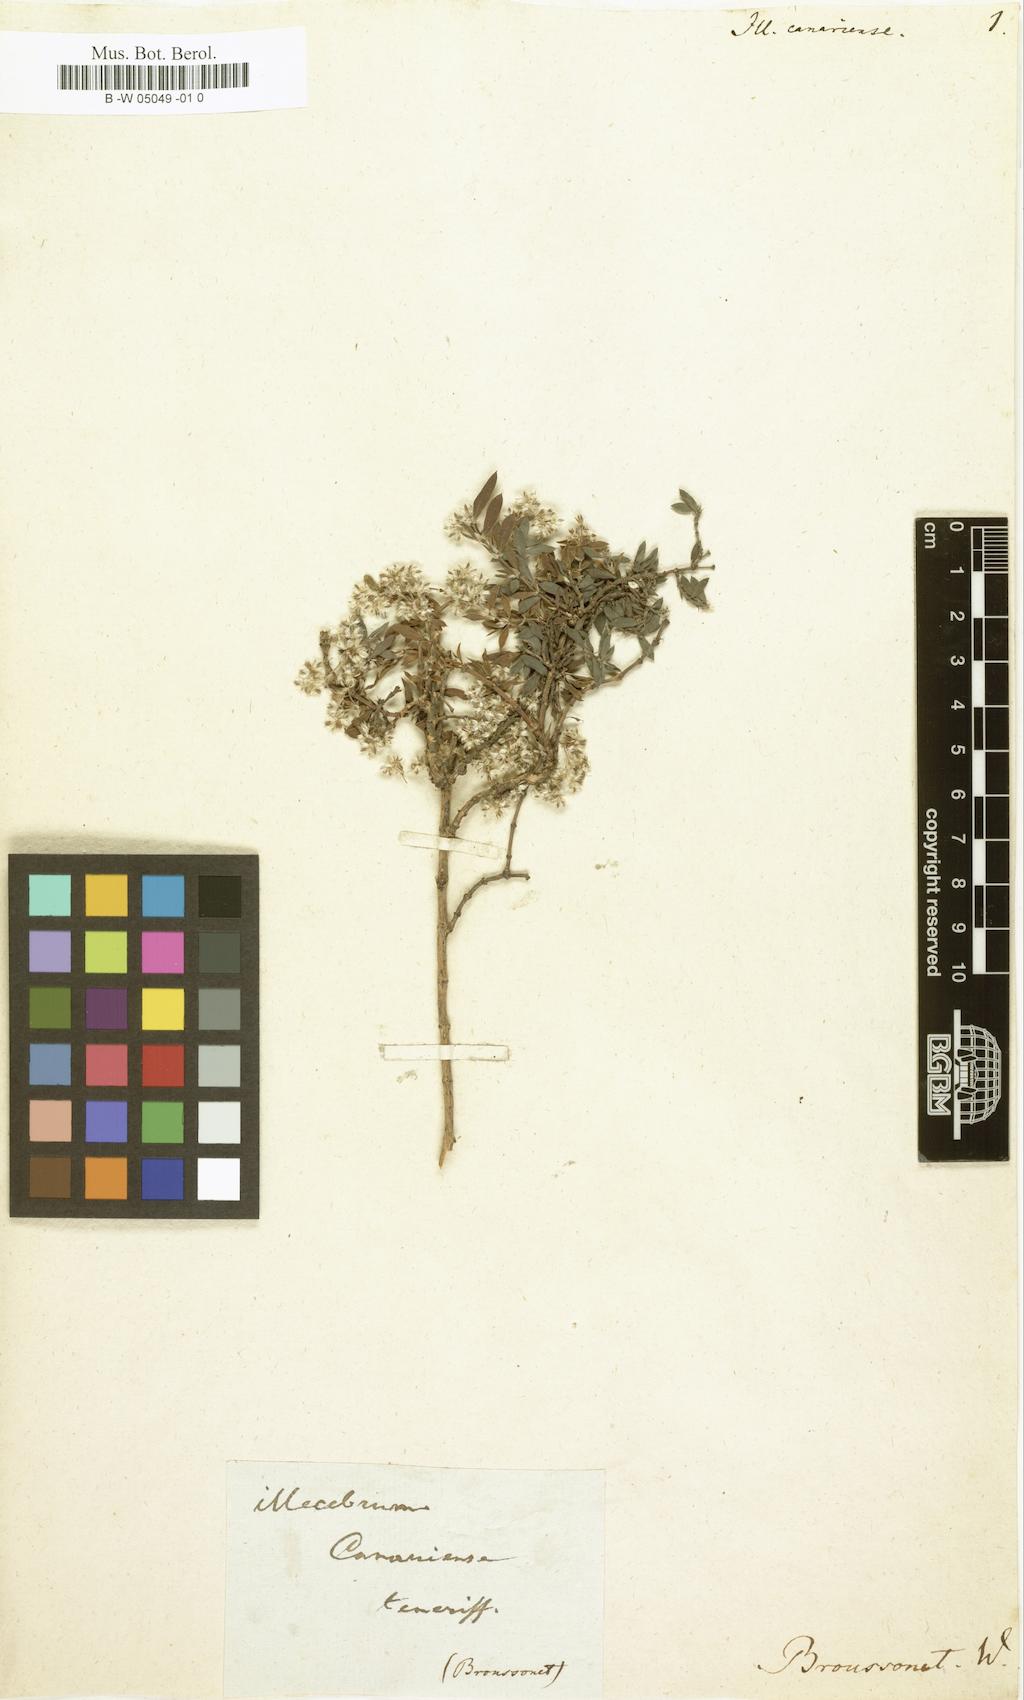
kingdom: Plantae
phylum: Tracheophyta
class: Magnoliopsida
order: Caryophyllales
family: Caryophyllaceae
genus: Paronychia
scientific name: Paronychia canariensis
